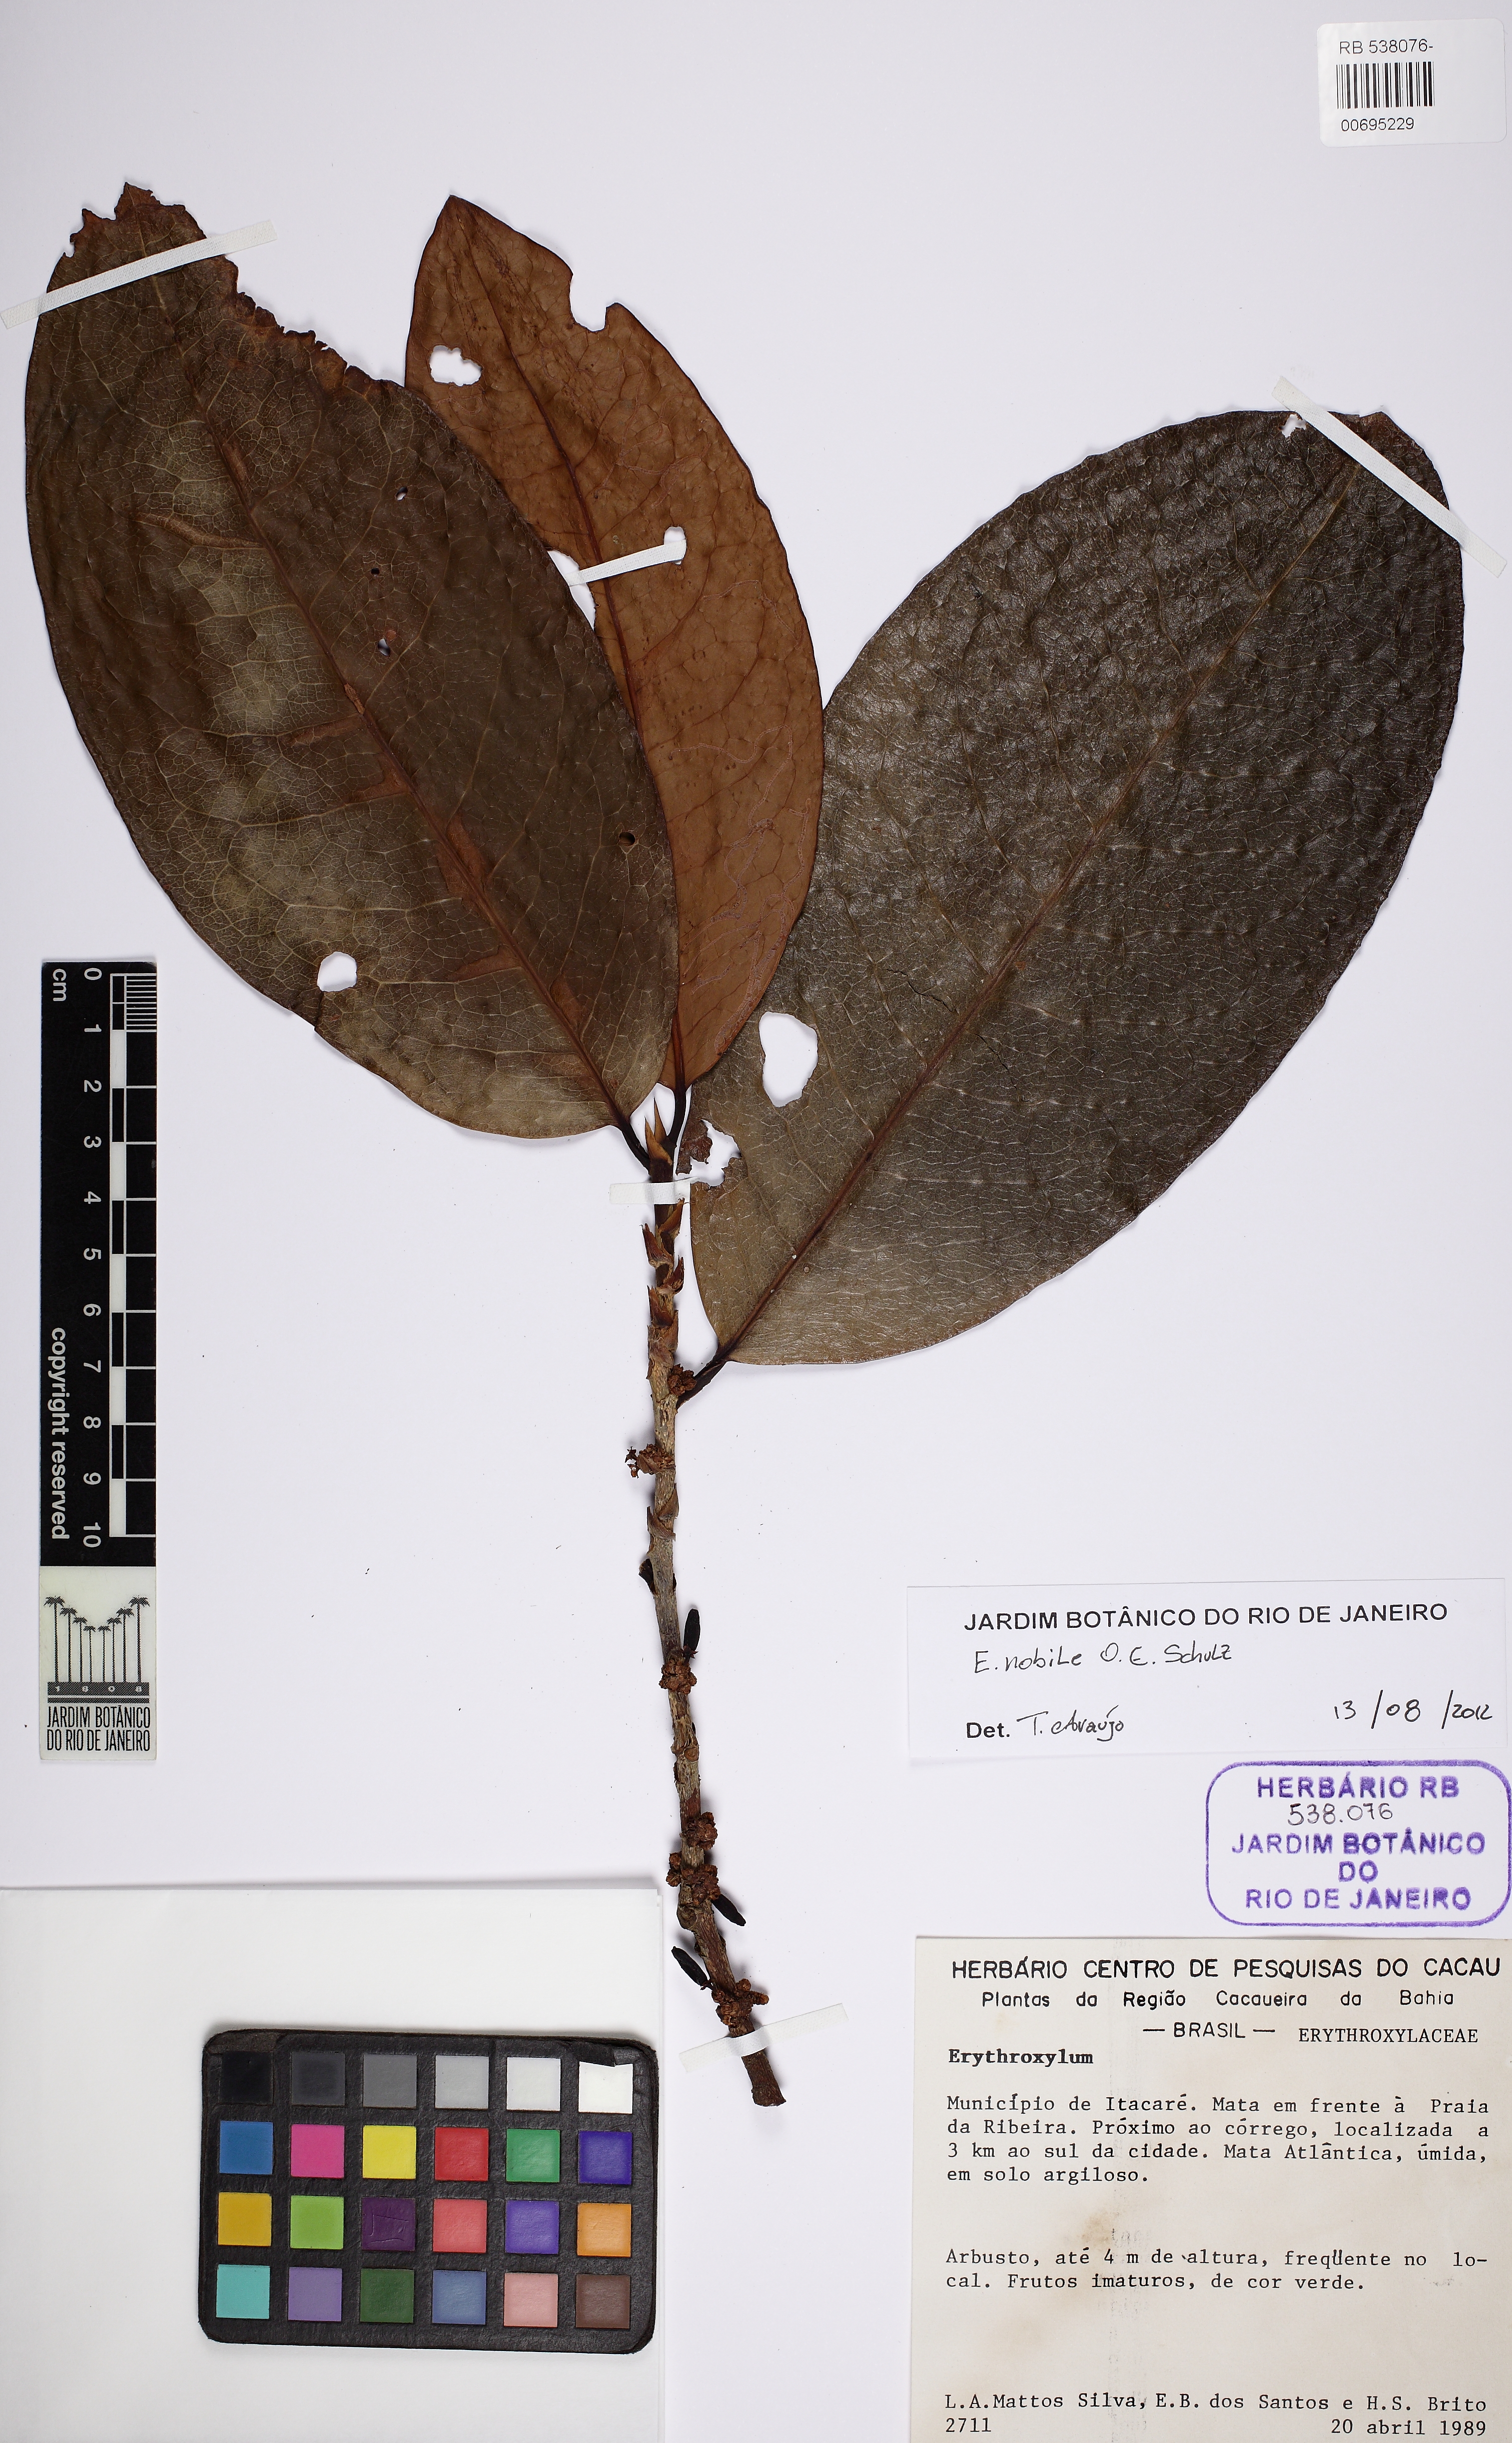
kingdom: Plantae
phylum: Tracheophyta
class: Magnoliopsida
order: Malpighiales
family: Erythroxylaceae
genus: Erythroxylum
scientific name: Erythroxylum nobile
